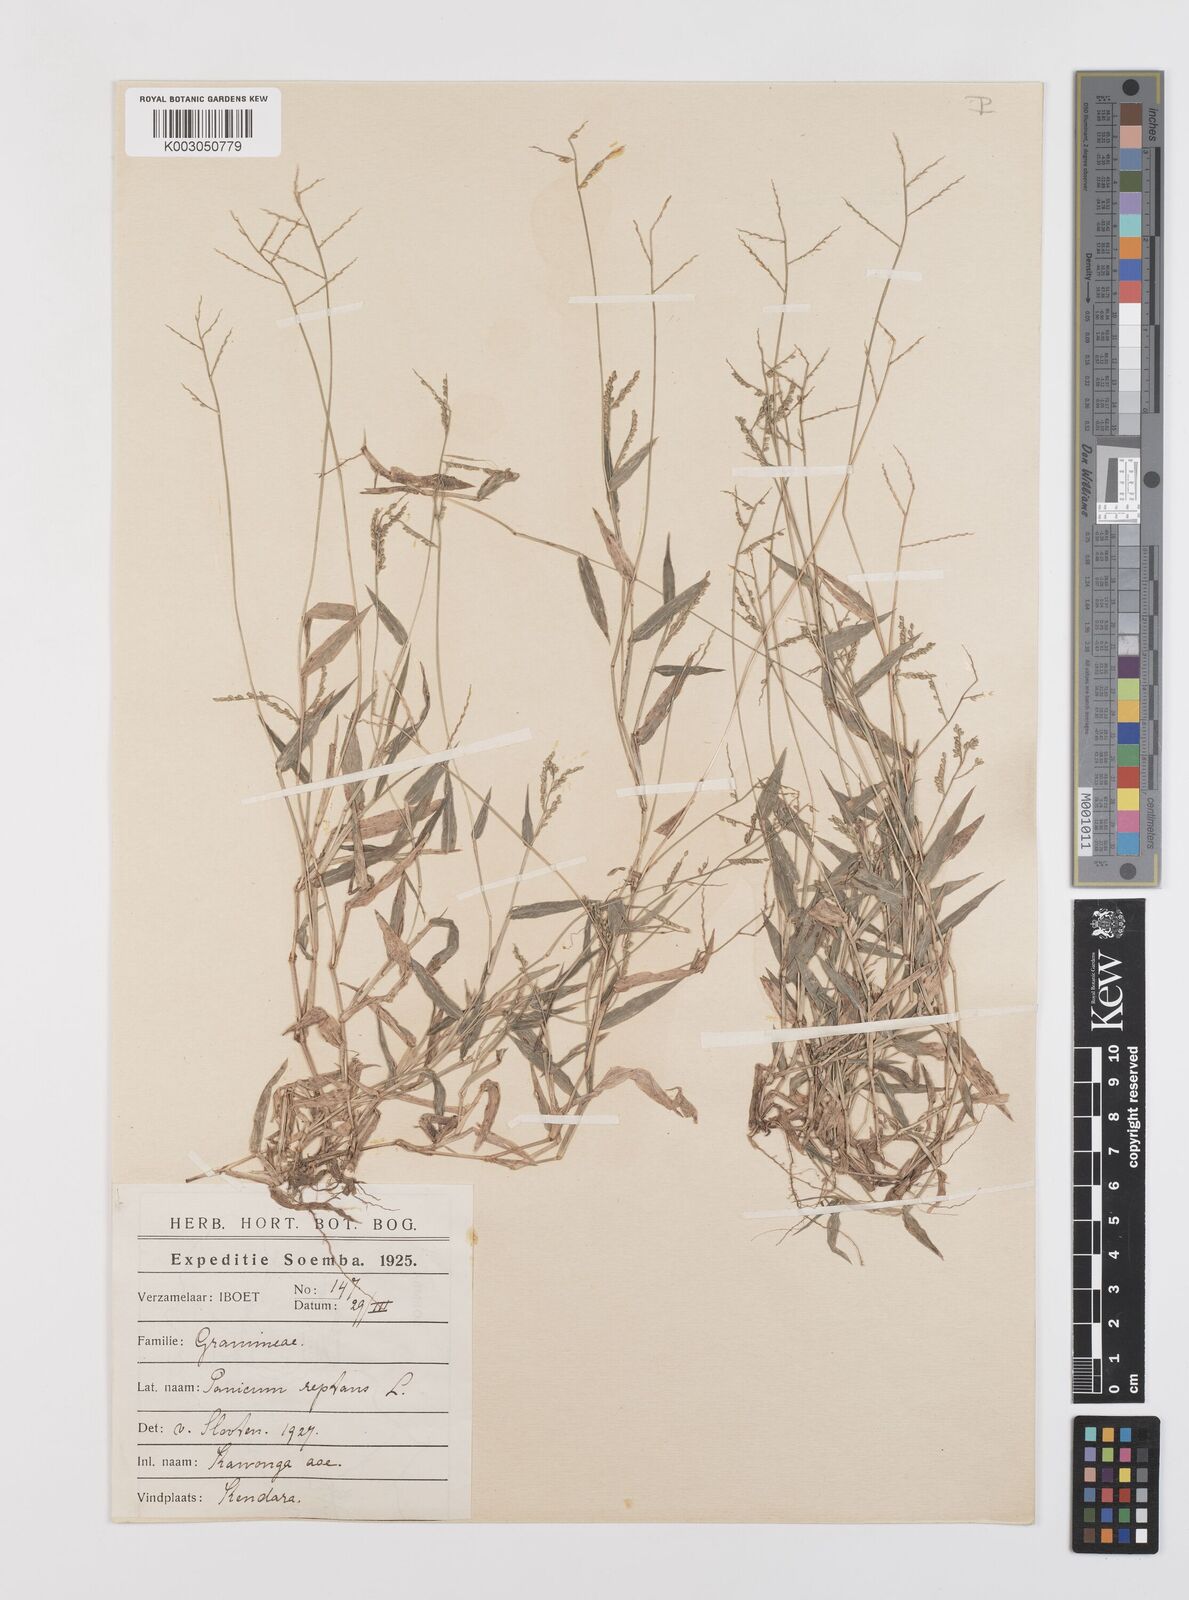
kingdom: Plantae
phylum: Tracheophyta
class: Liliopsida
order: Poales
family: Poaceae
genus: Urochloa
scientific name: Urochloa reptans
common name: Sprawling signalgrass
